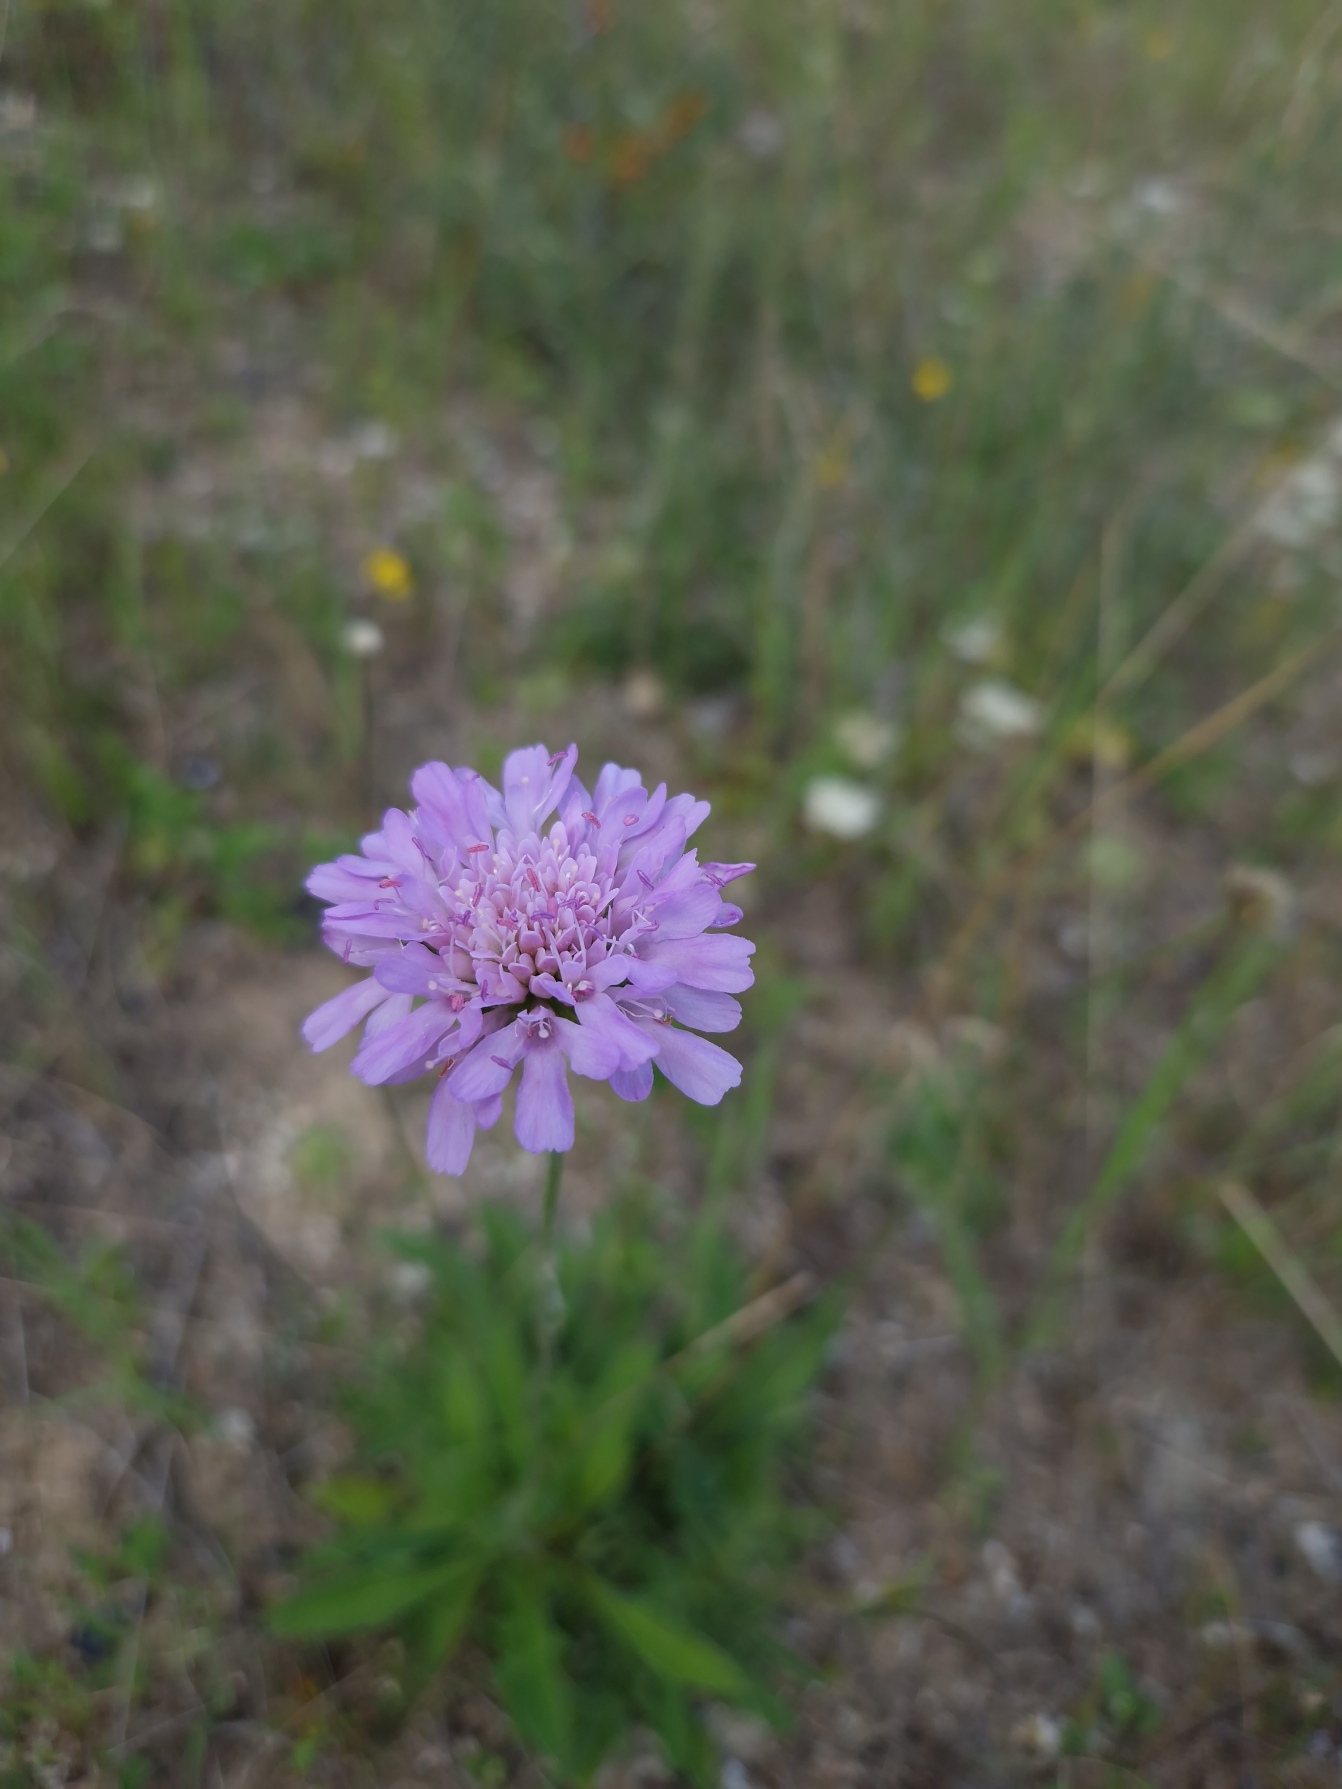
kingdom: Plantae
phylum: Tracheophyta
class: Magnoliopsida
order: Dipsacales
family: Caprifoliaceae
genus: Knautia
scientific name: Knautia arvensis
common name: Blåhat
